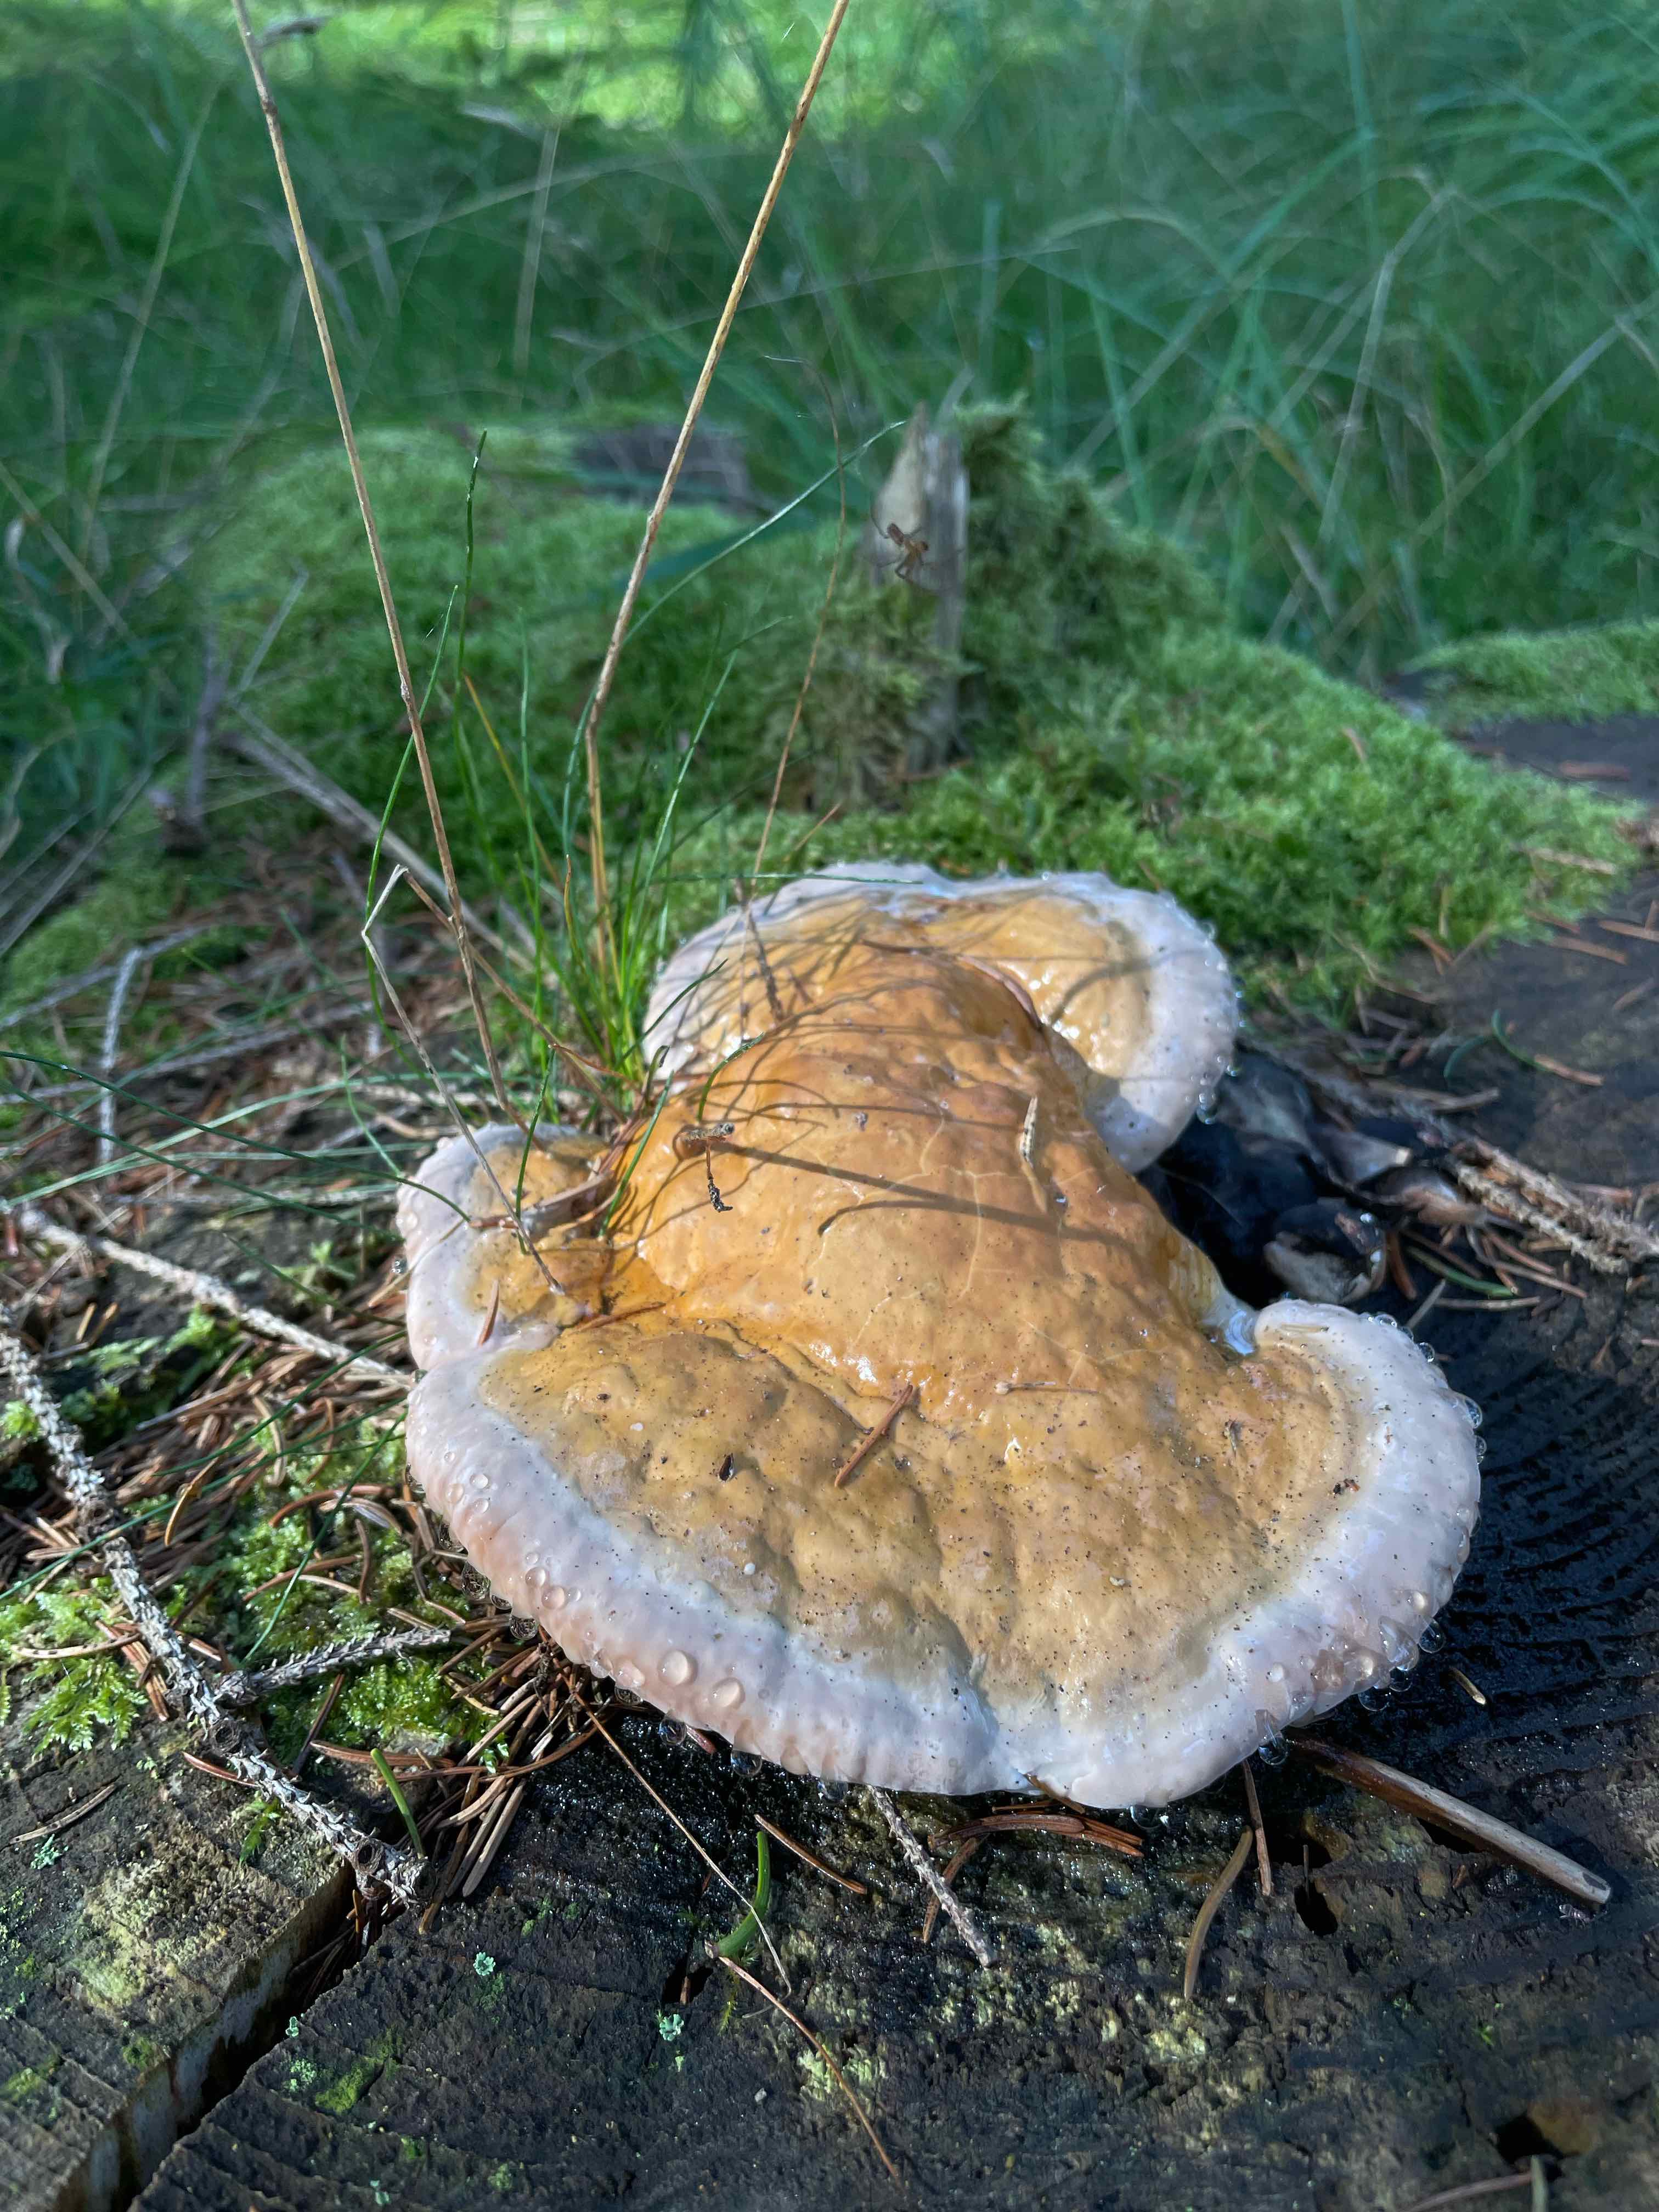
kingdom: Fungi
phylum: Basidiomycota
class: Agaricomycetes
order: Polyporales
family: Fomitopsidaceae
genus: Fomitopsis
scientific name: Fomitopsis pinicola
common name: randbæltet hovporesvamp
